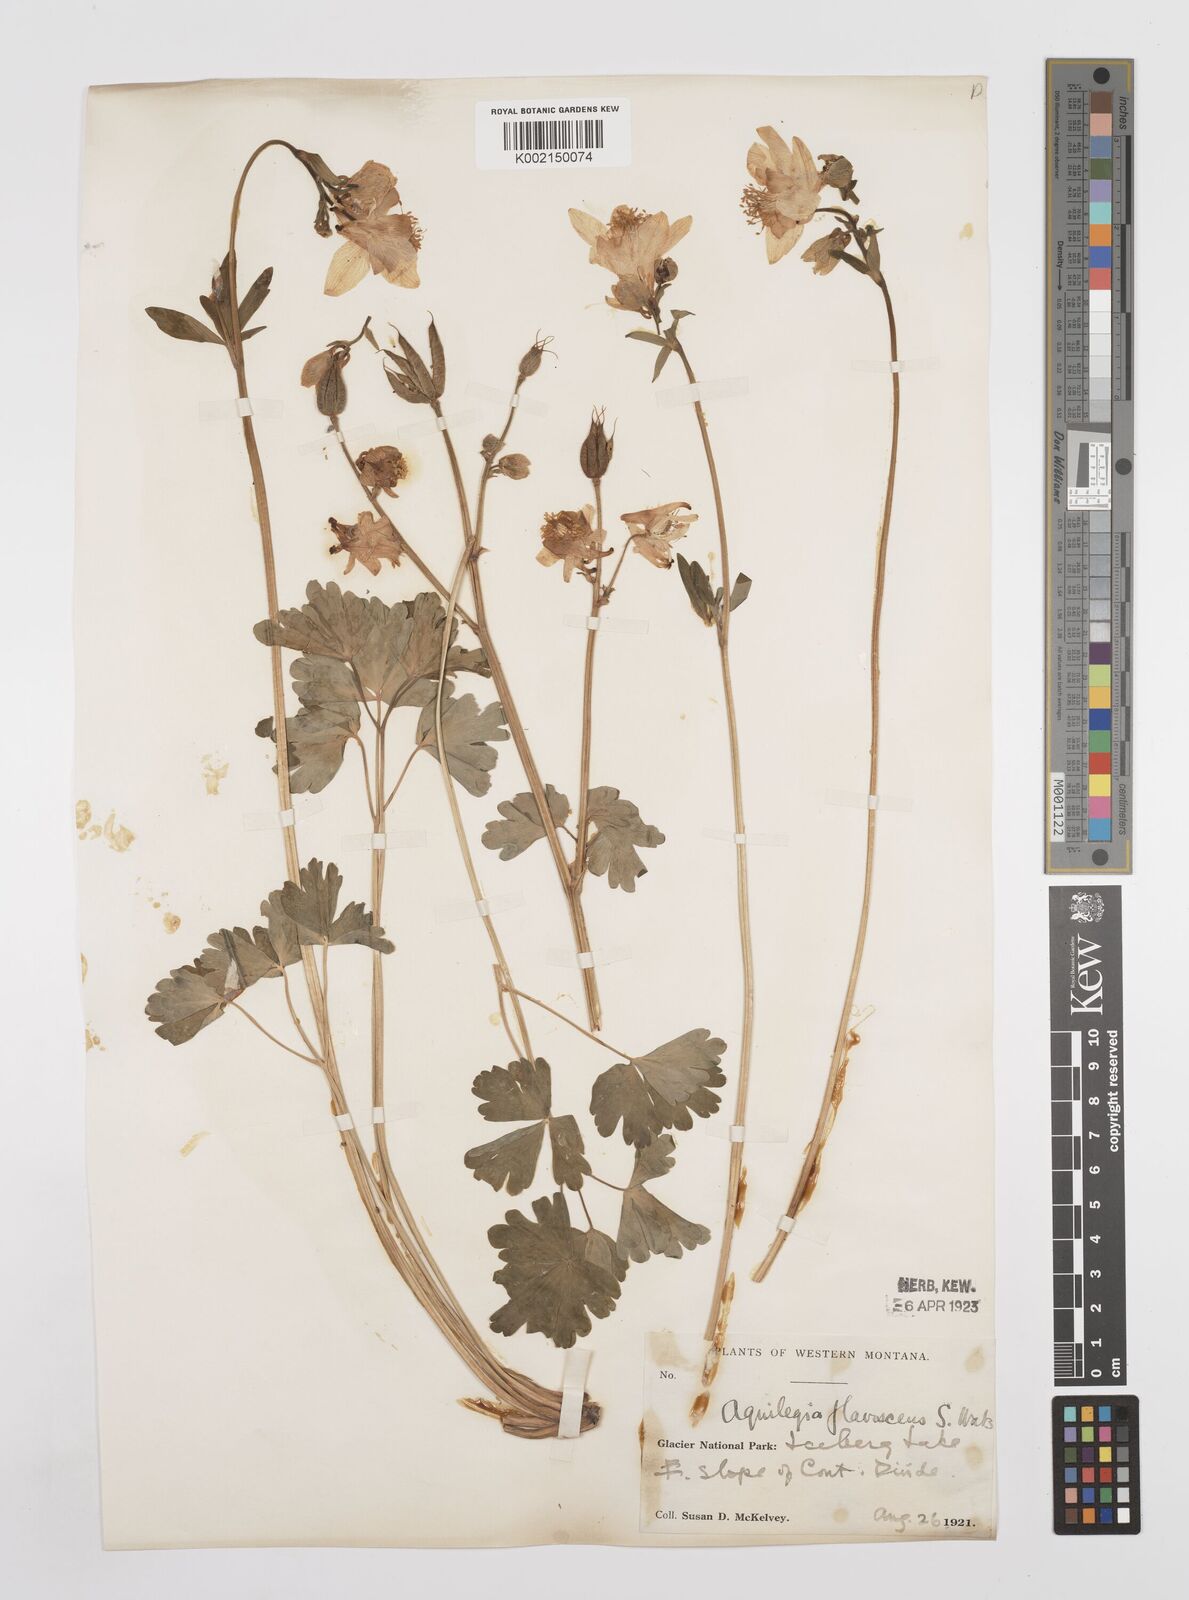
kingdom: Plantae
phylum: Tracheophyta
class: Magnoliopsida
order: Ranunculales
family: Ranunculaceae
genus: Aquilegia
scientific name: Aquilegia flavescens
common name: Yellow columbine
